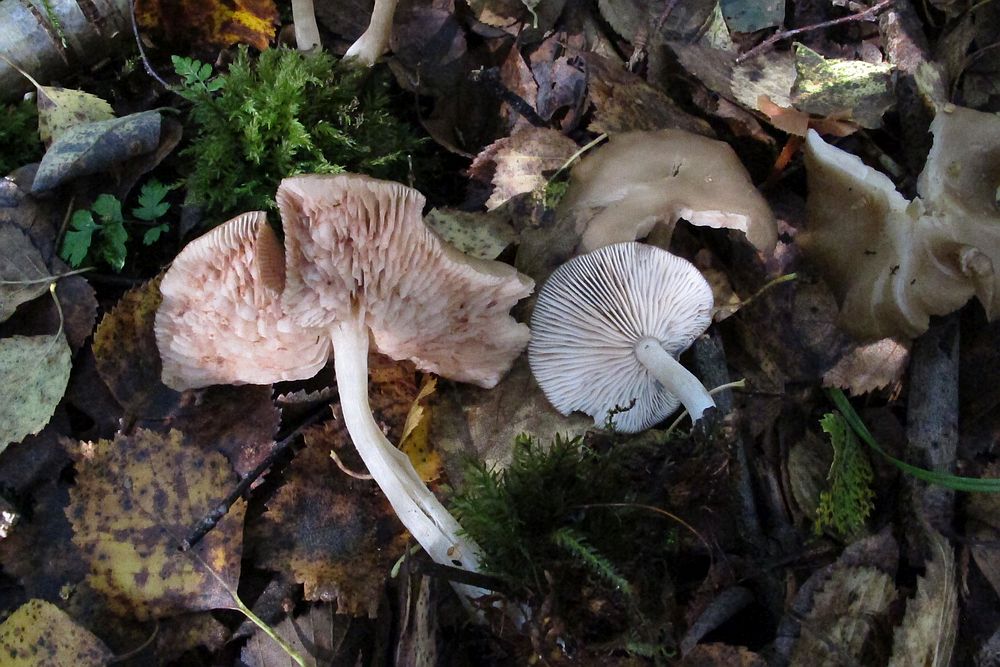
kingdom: Fungi
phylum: Basidiomycota
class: Agaricomycetes
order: Agaricales
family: Entolomataceae
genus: Entoloma
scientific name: Entoloma
